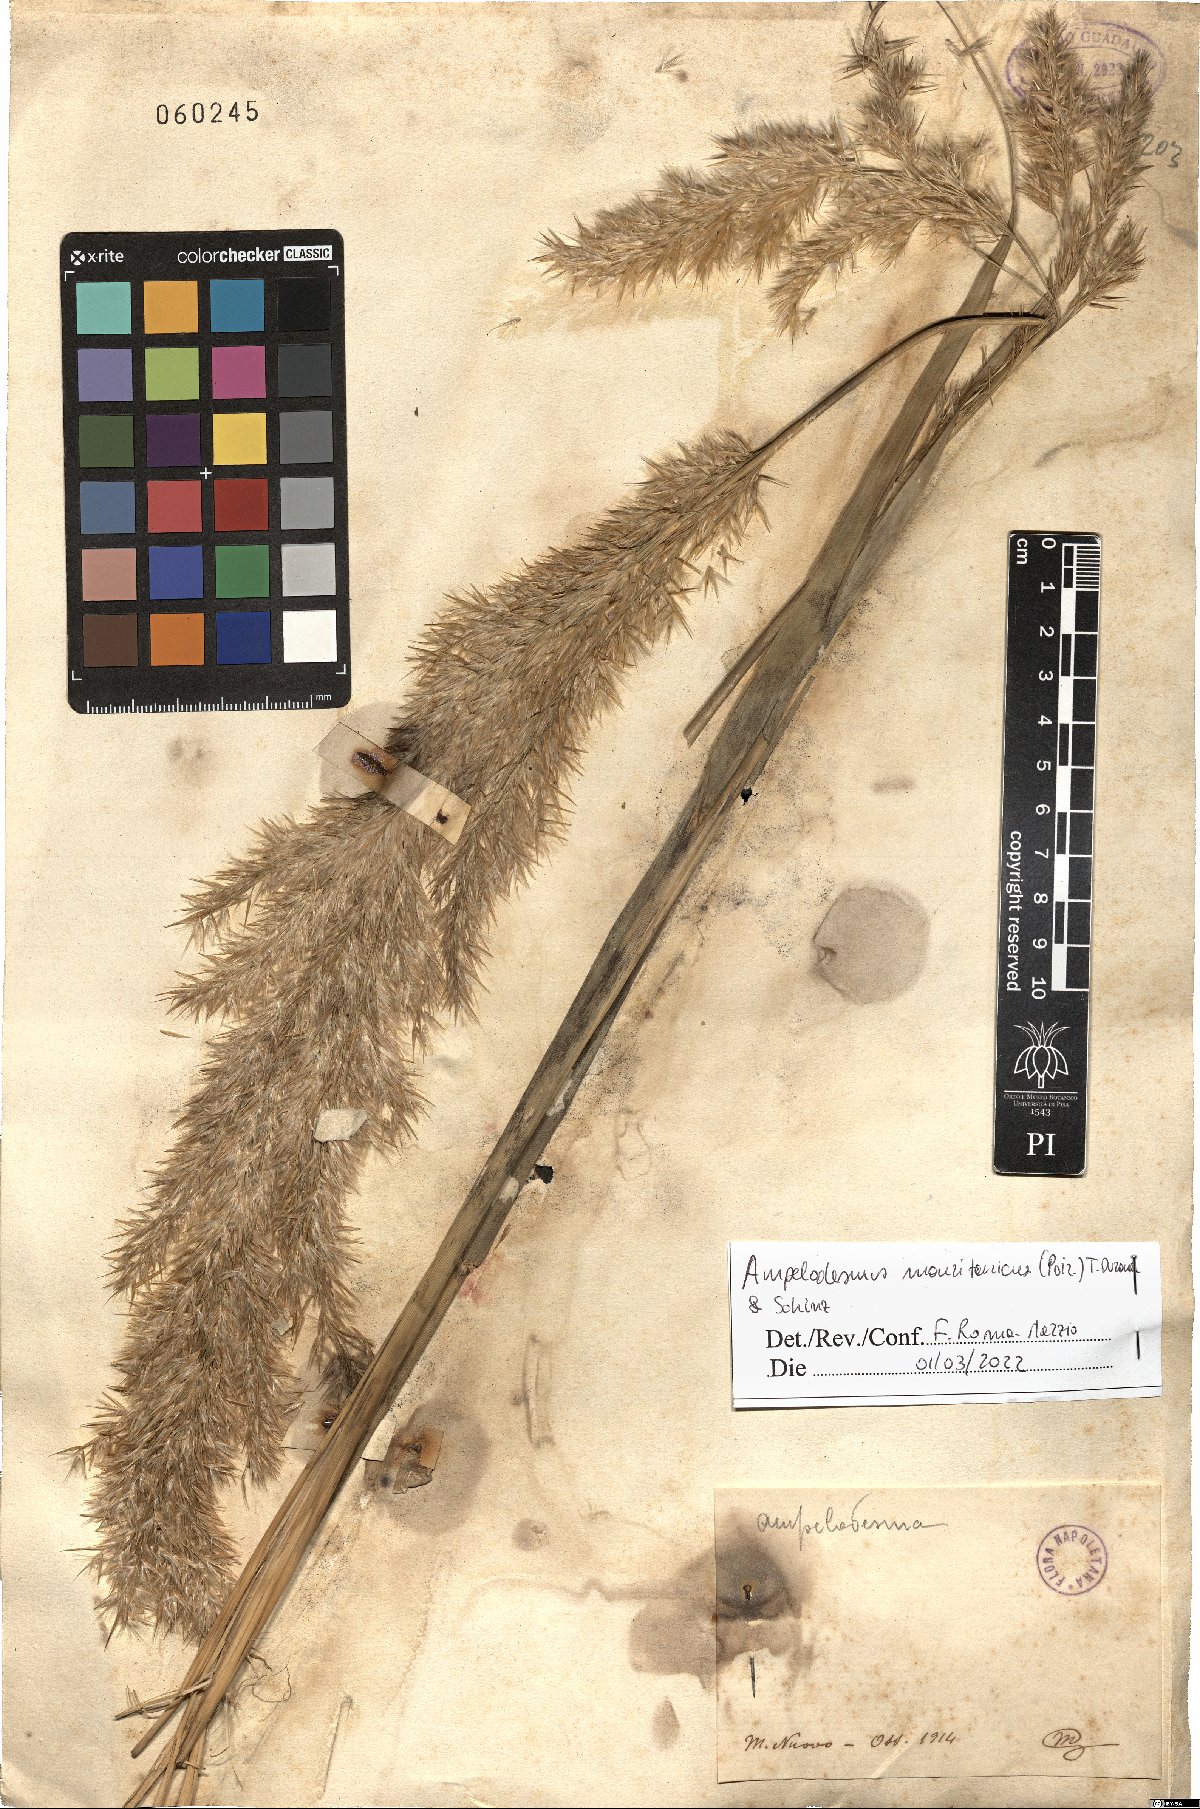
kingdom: Plantae
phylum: Tracheophyta
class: Liliopsida
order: Poales
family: Poaceae
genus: Ampelodesmos
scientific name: Ampelodesmos mauritanicus
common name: Mauritanian grass
